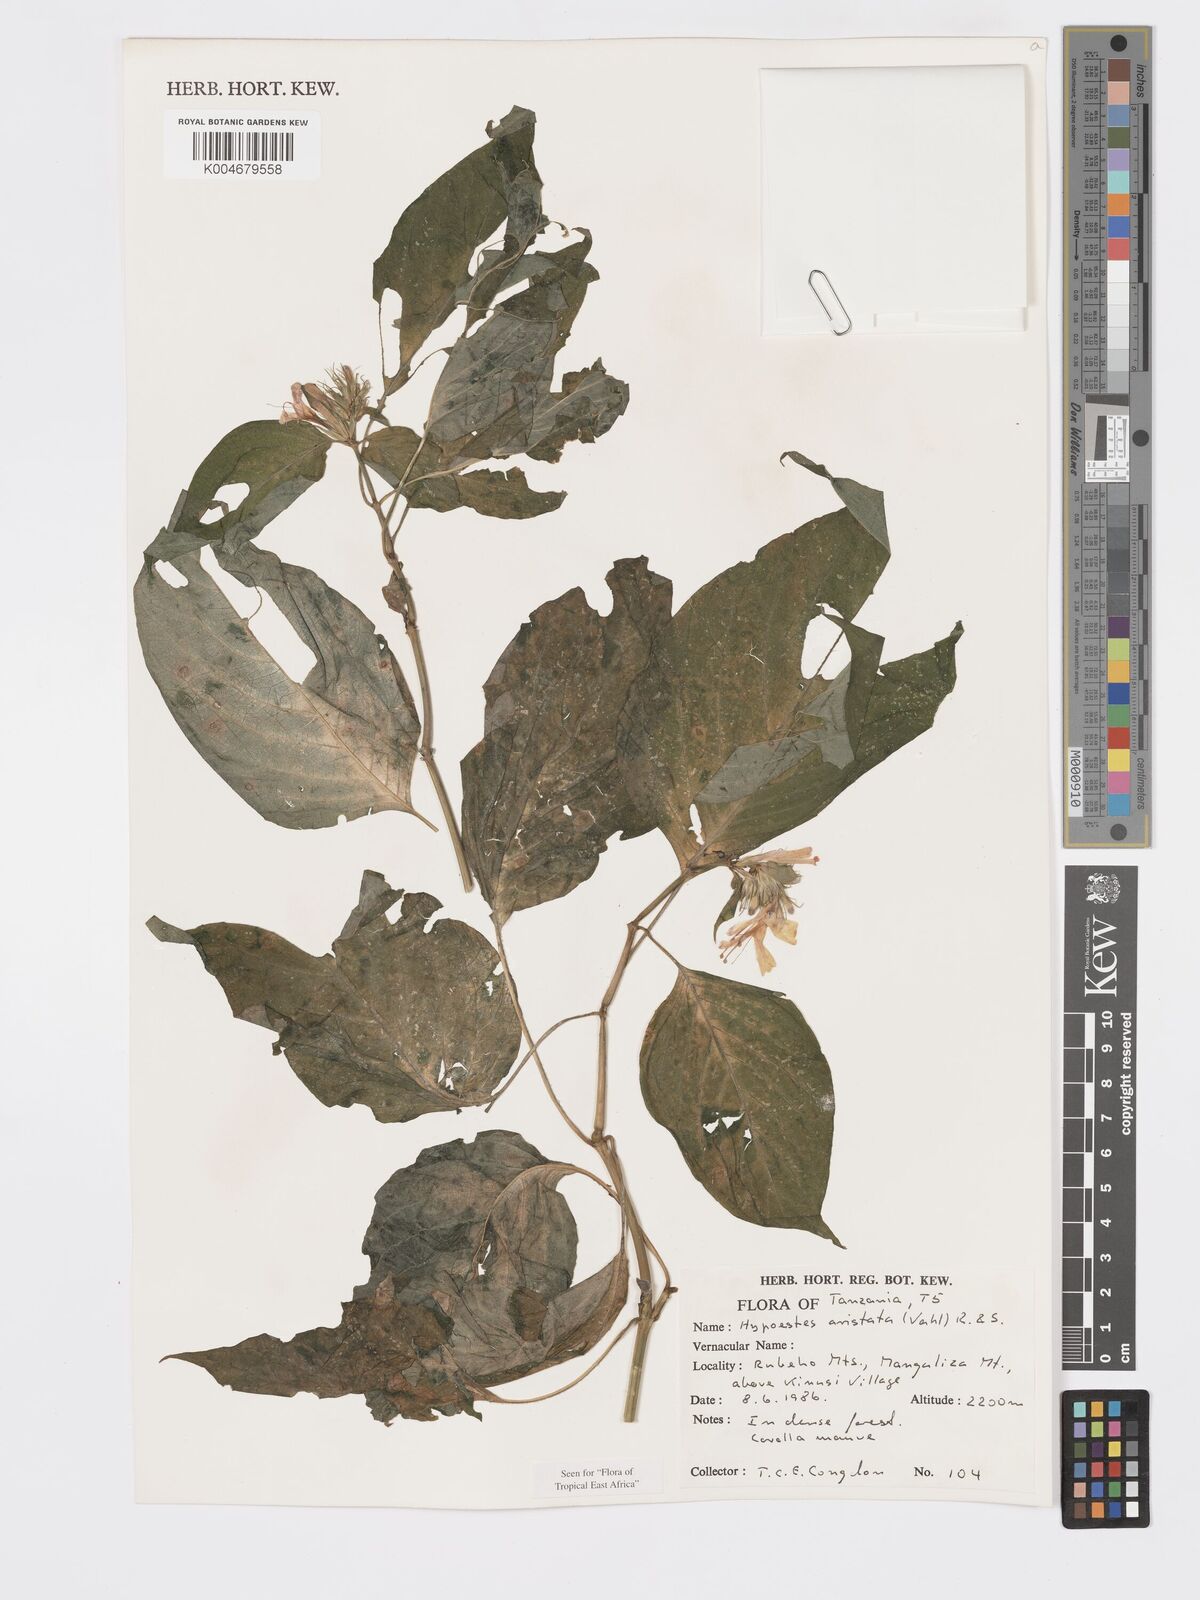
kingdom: Plantae
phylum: Tracheophyta
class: Magnoliopsida
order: Lamiales
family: Acanthaceae
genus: Hypoestes
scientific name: Hypoestes aristata
